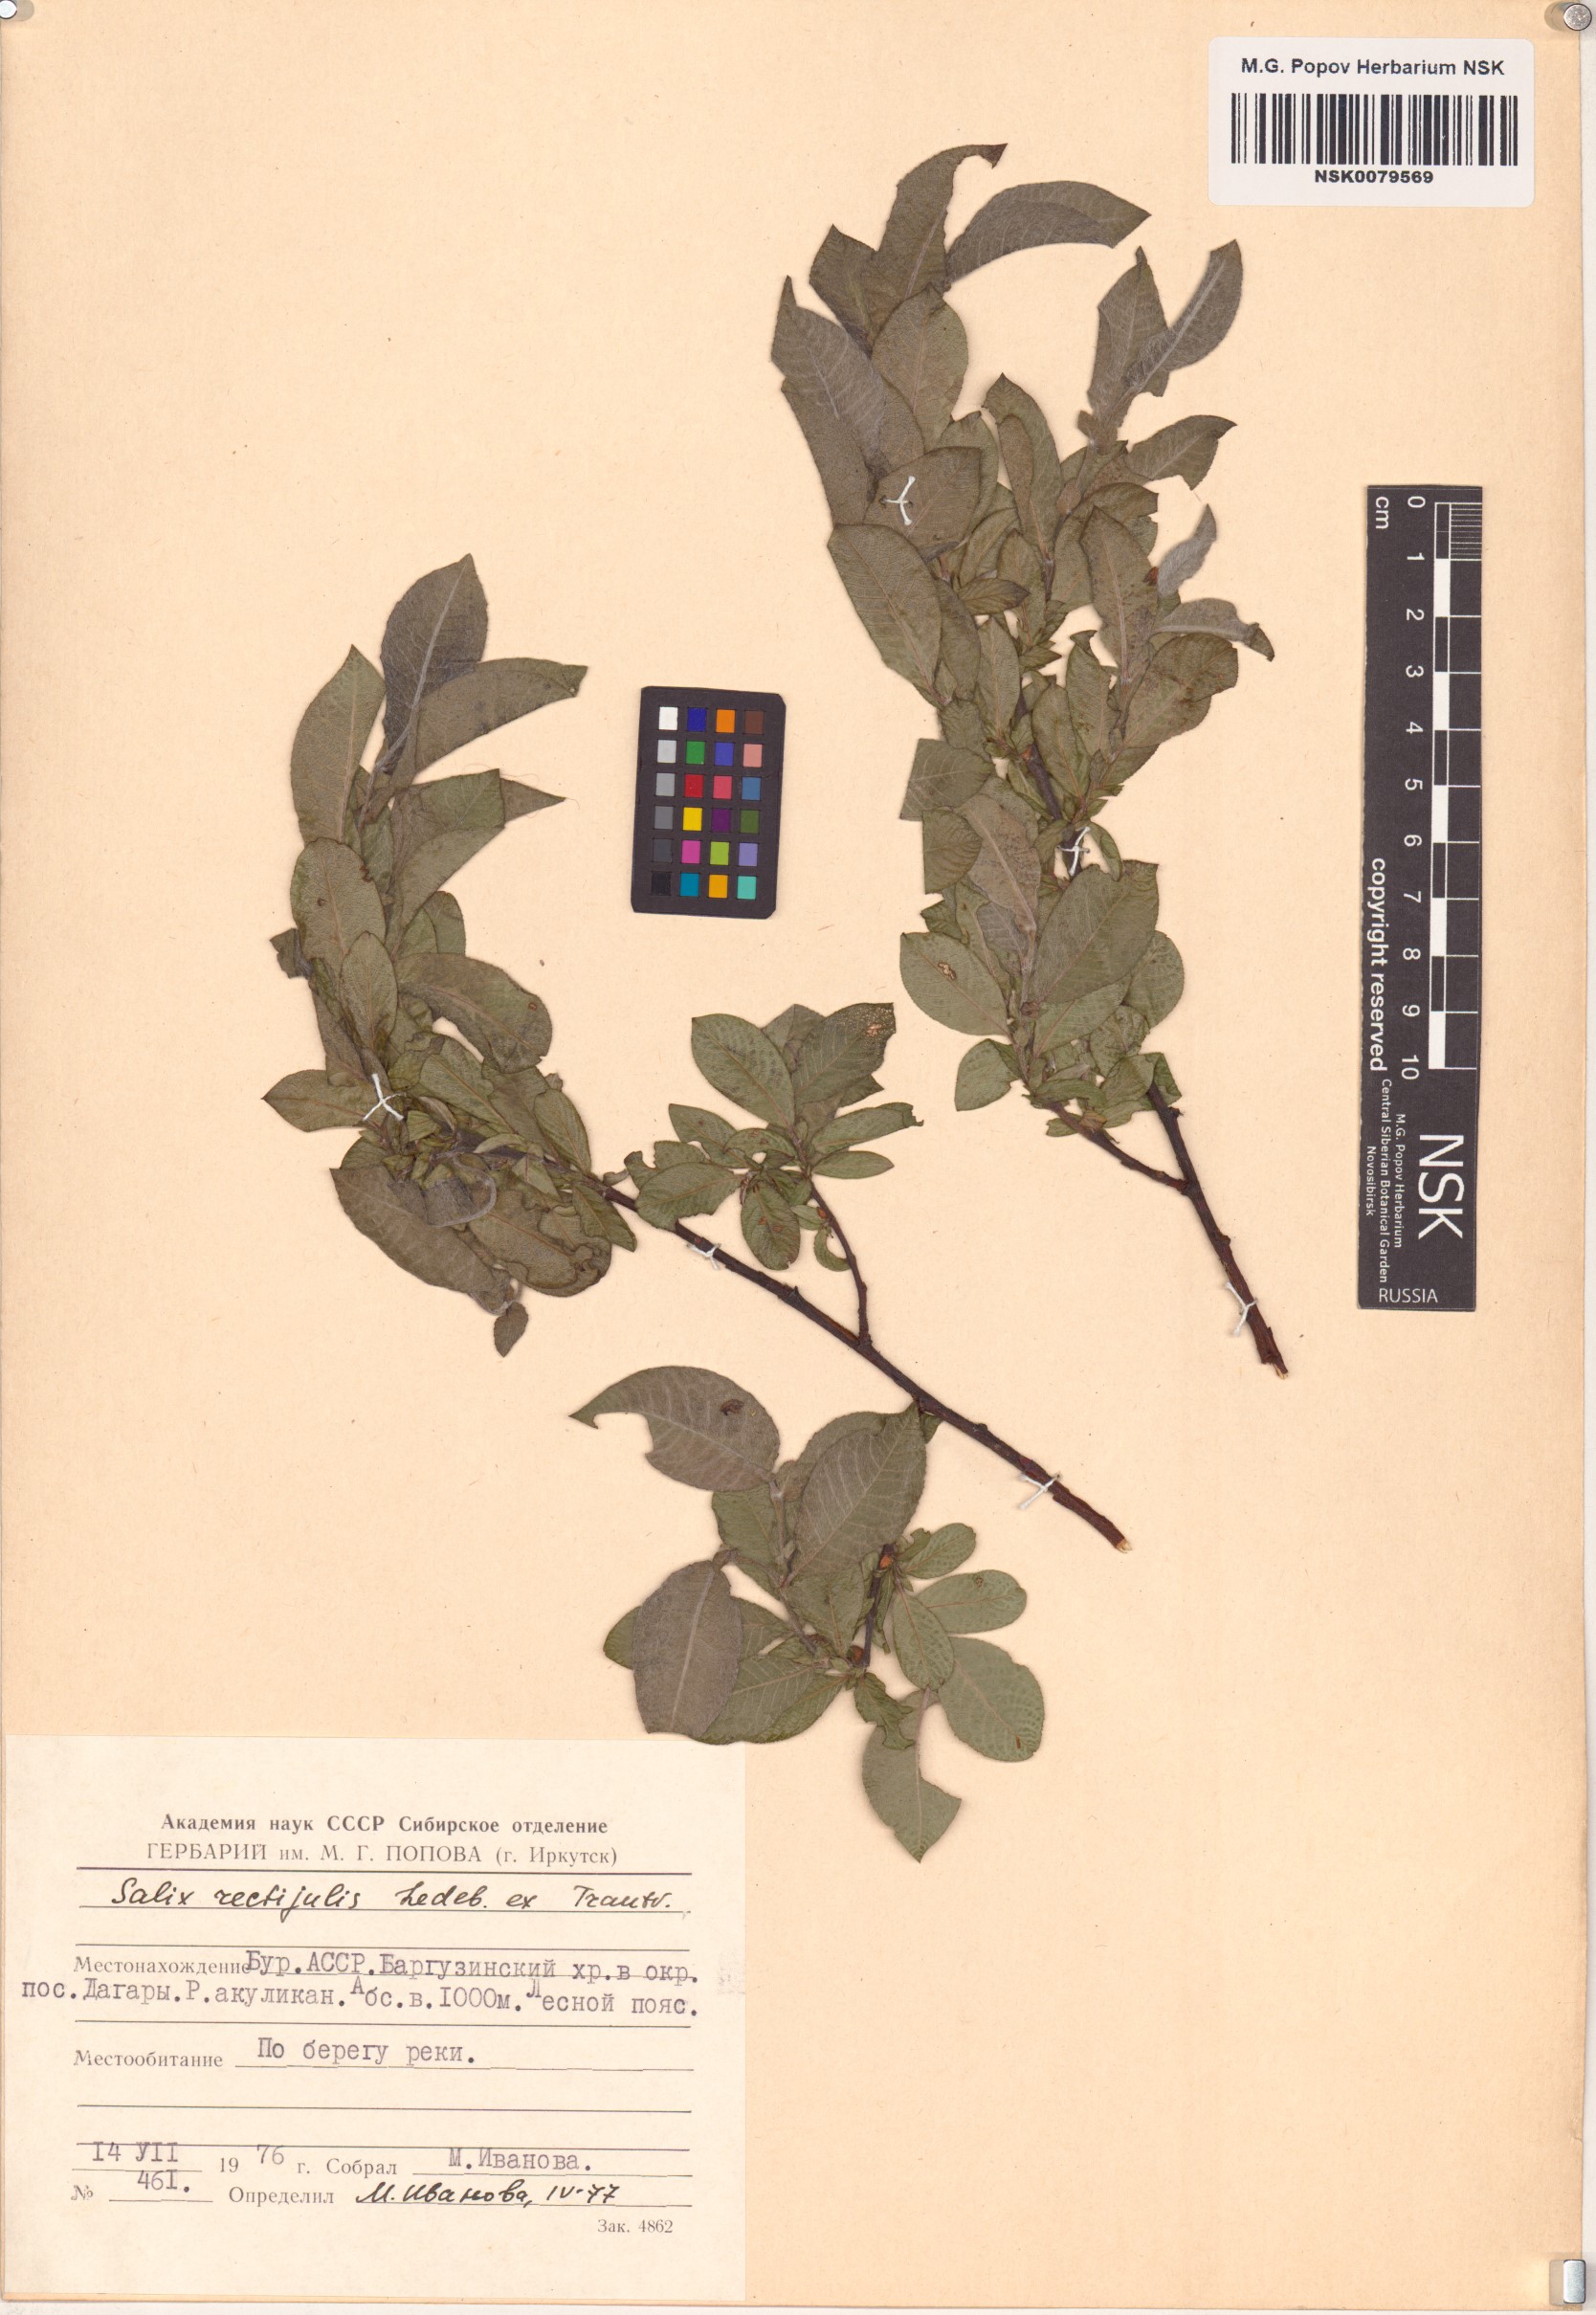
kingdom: Plantae
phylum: Tracheophyta
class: Magnoliopsida
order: Malpighiales
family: Salicaceae
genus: Salix
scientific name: Salix rectijulis
